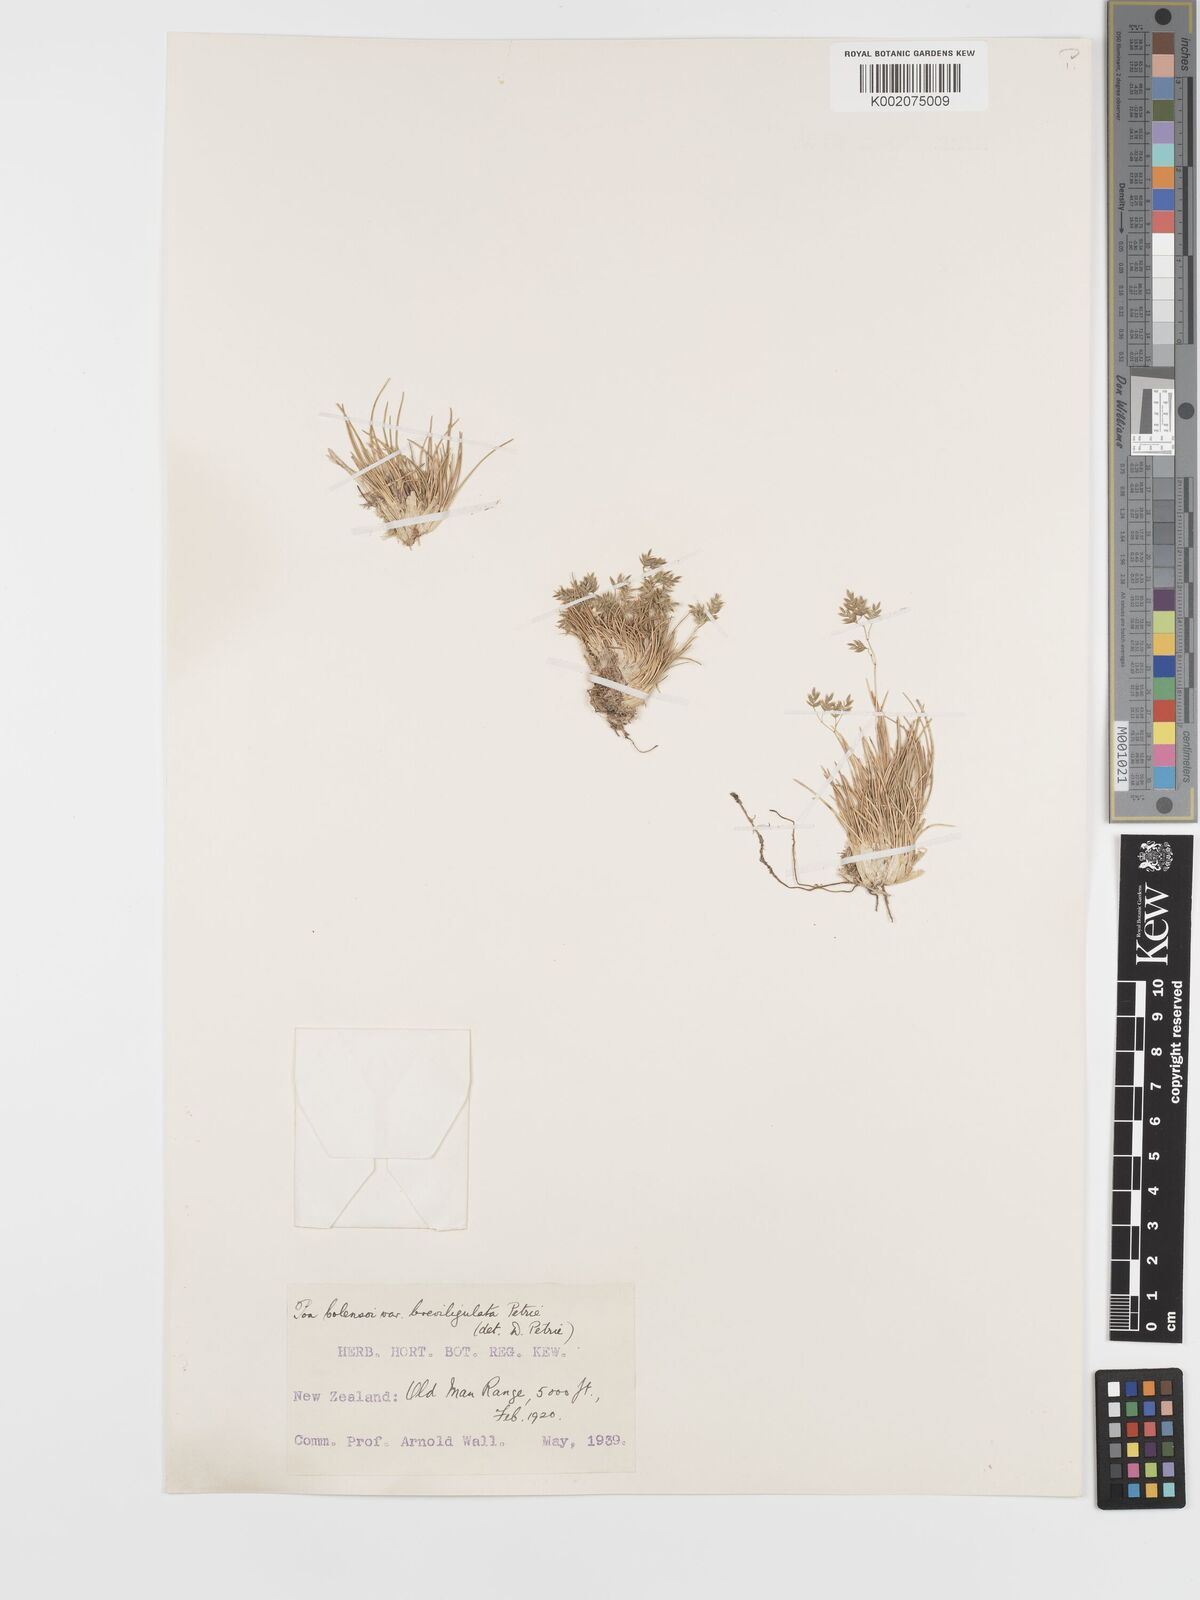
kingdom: Plantae
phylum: Tracheophyta
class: Liliopsida
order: Poales
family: Poaceae
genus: Poa
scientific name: Poa colensoi
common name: Blue tussock
